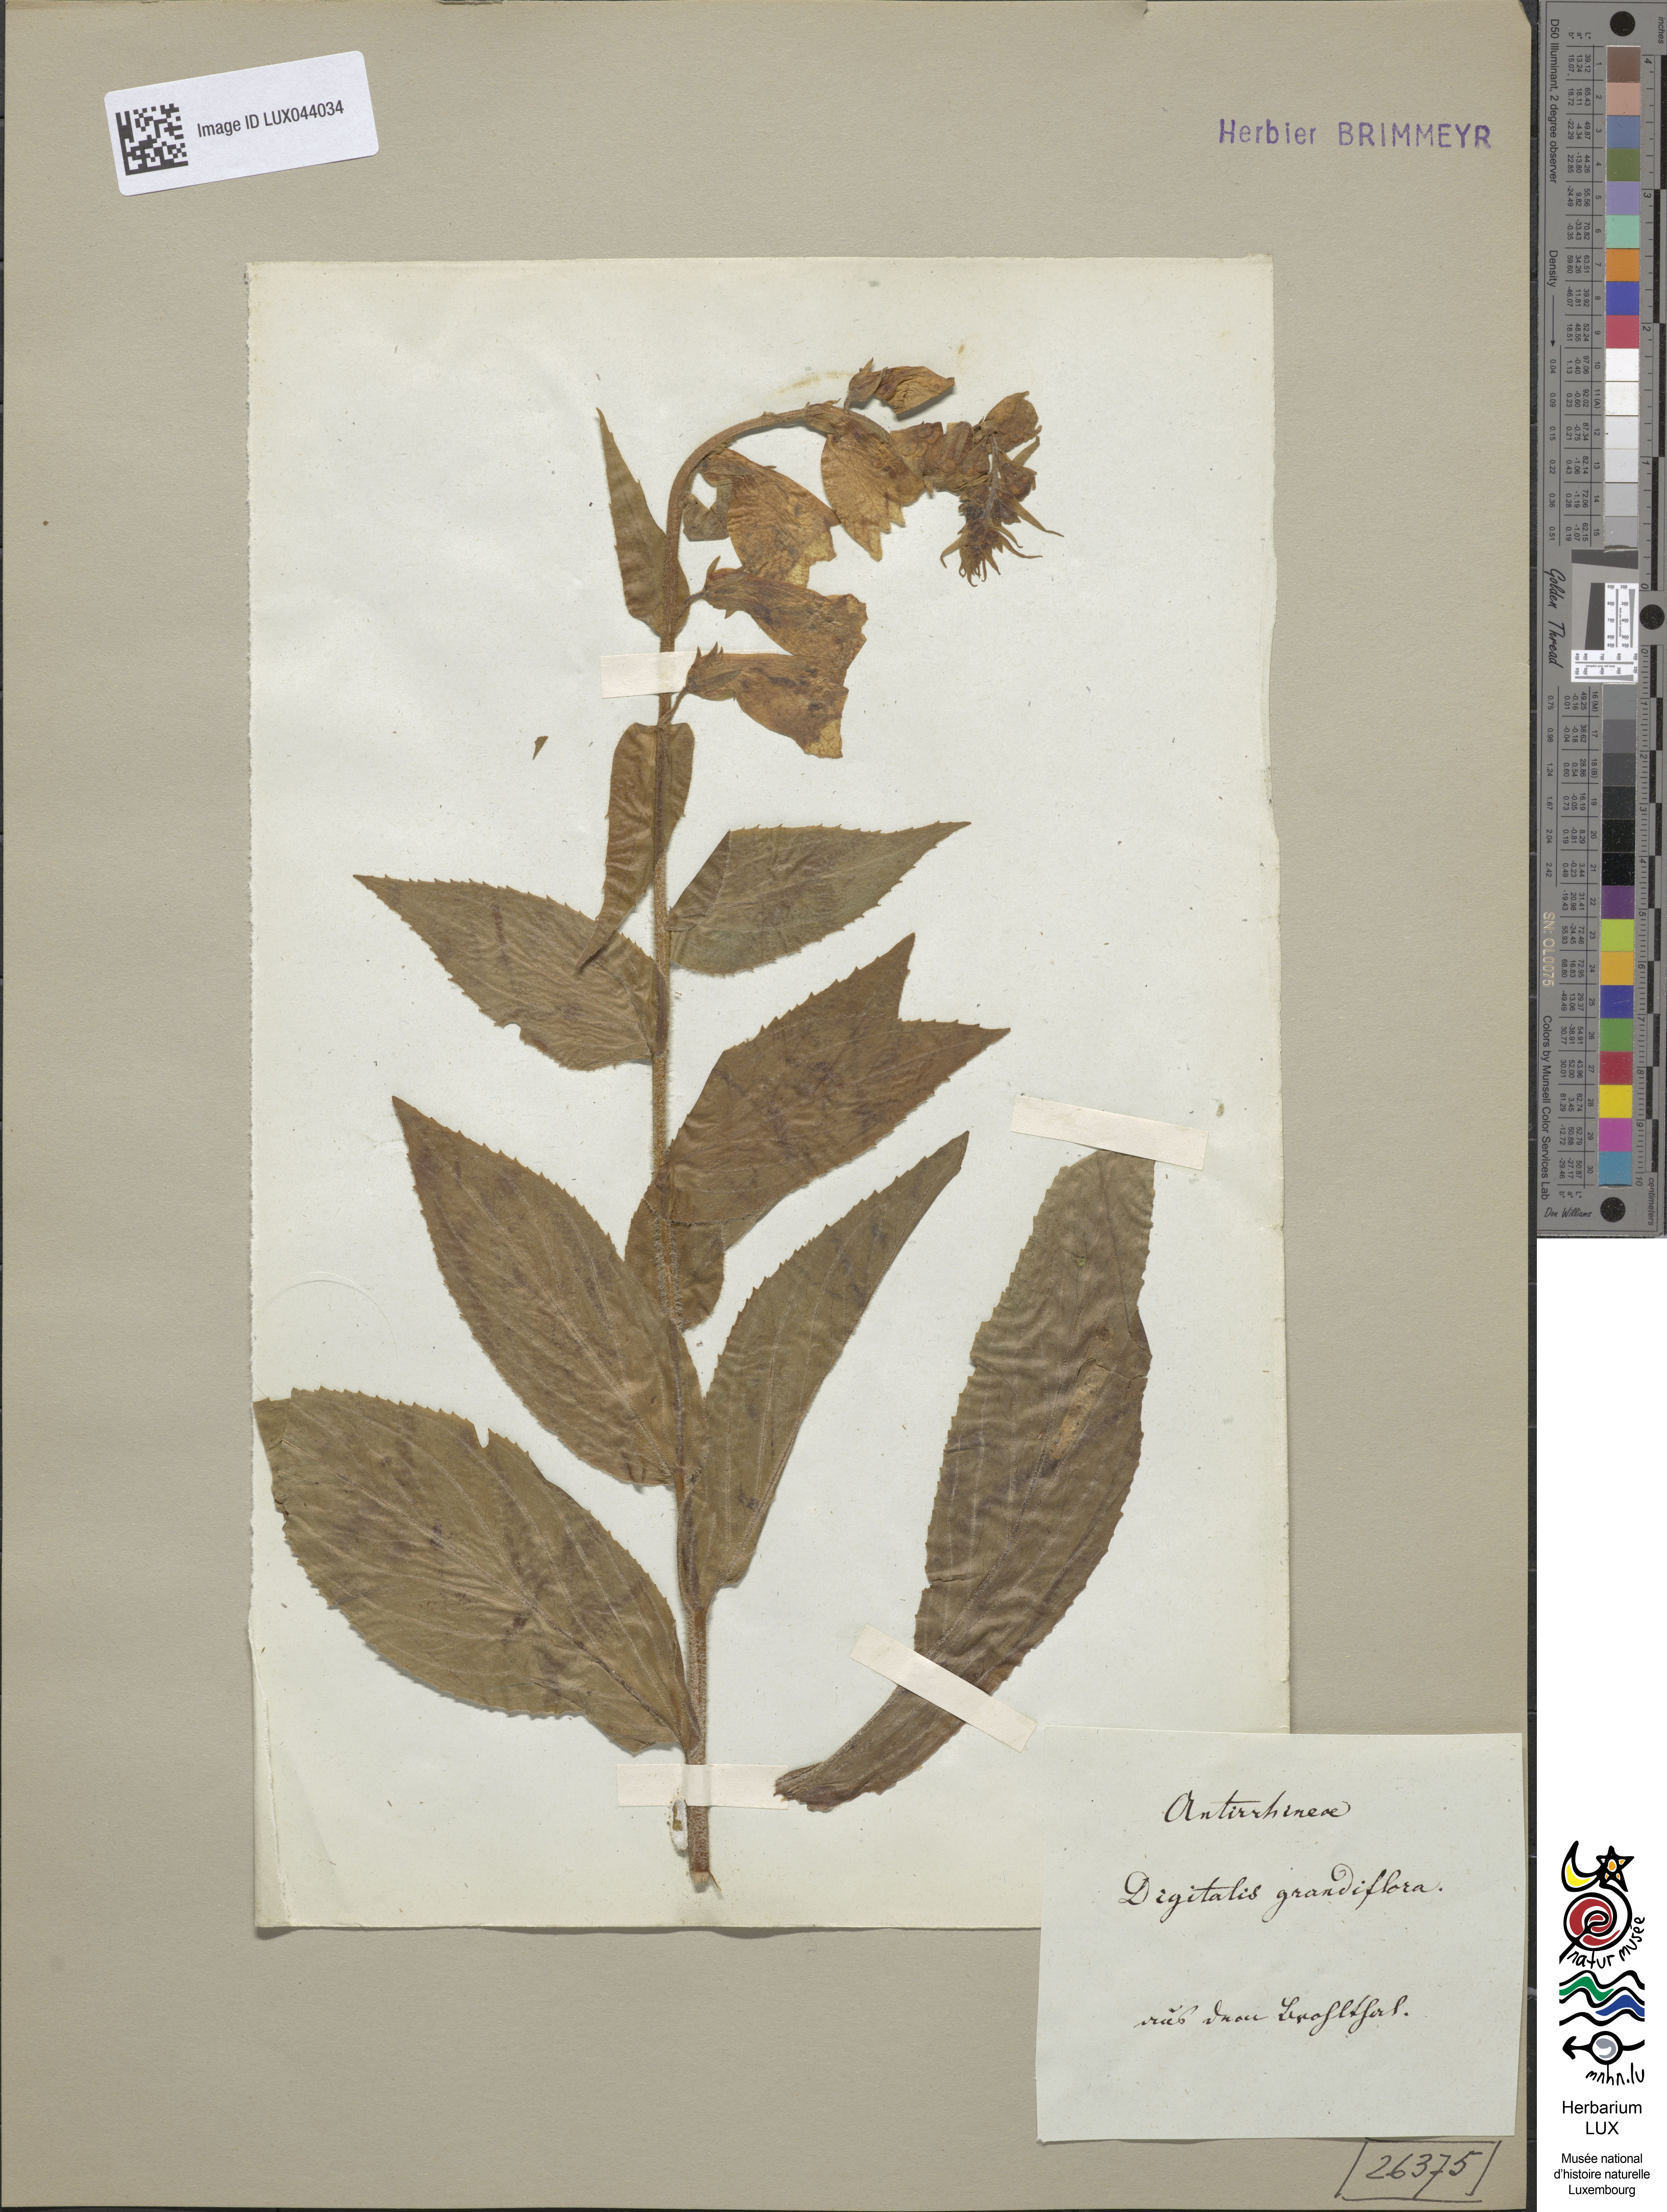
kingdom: Plantae
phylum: Tracheophyta
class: Magnoliopsida
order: Lamiales
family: Plantaginaceae
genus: Digitalis
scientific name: Digitalis grandiflora
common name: Yellow foxglove
